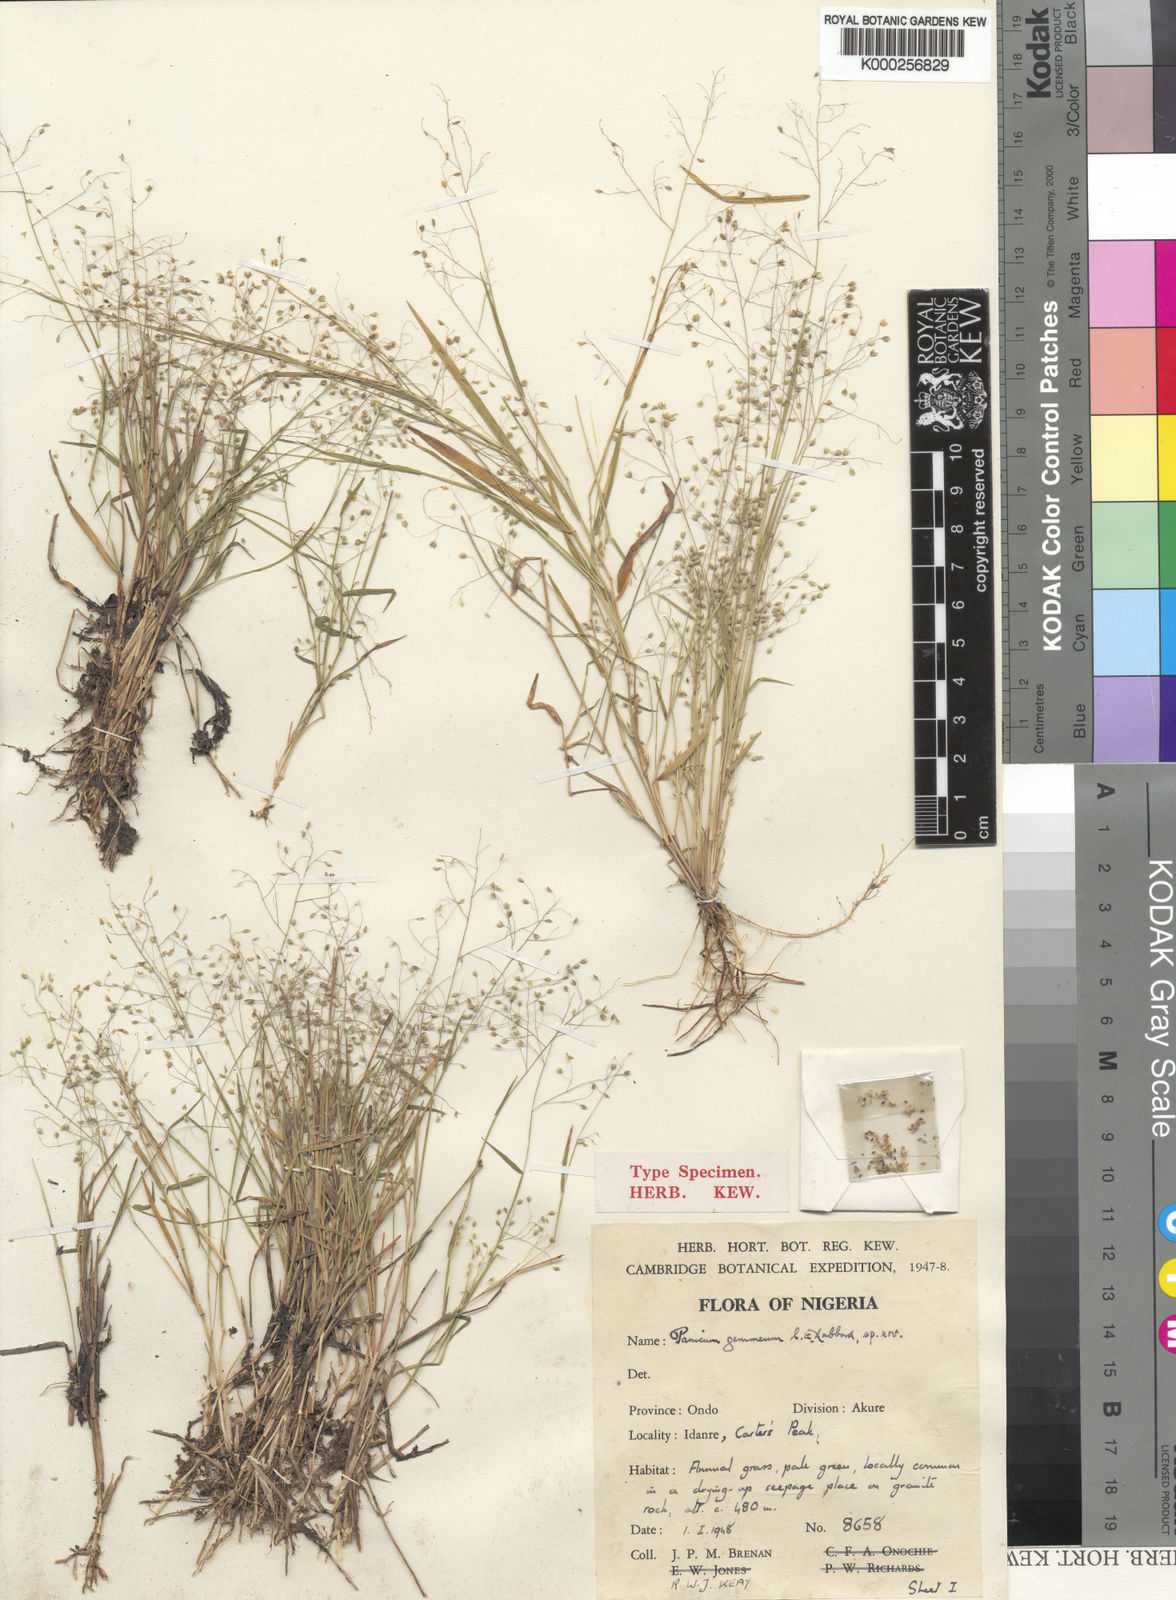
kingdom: Plantae
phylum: Tracheophyta
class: Liliopsida
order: Poales
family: Poaceae
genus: Panicum
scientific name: Panicum curviflorum
